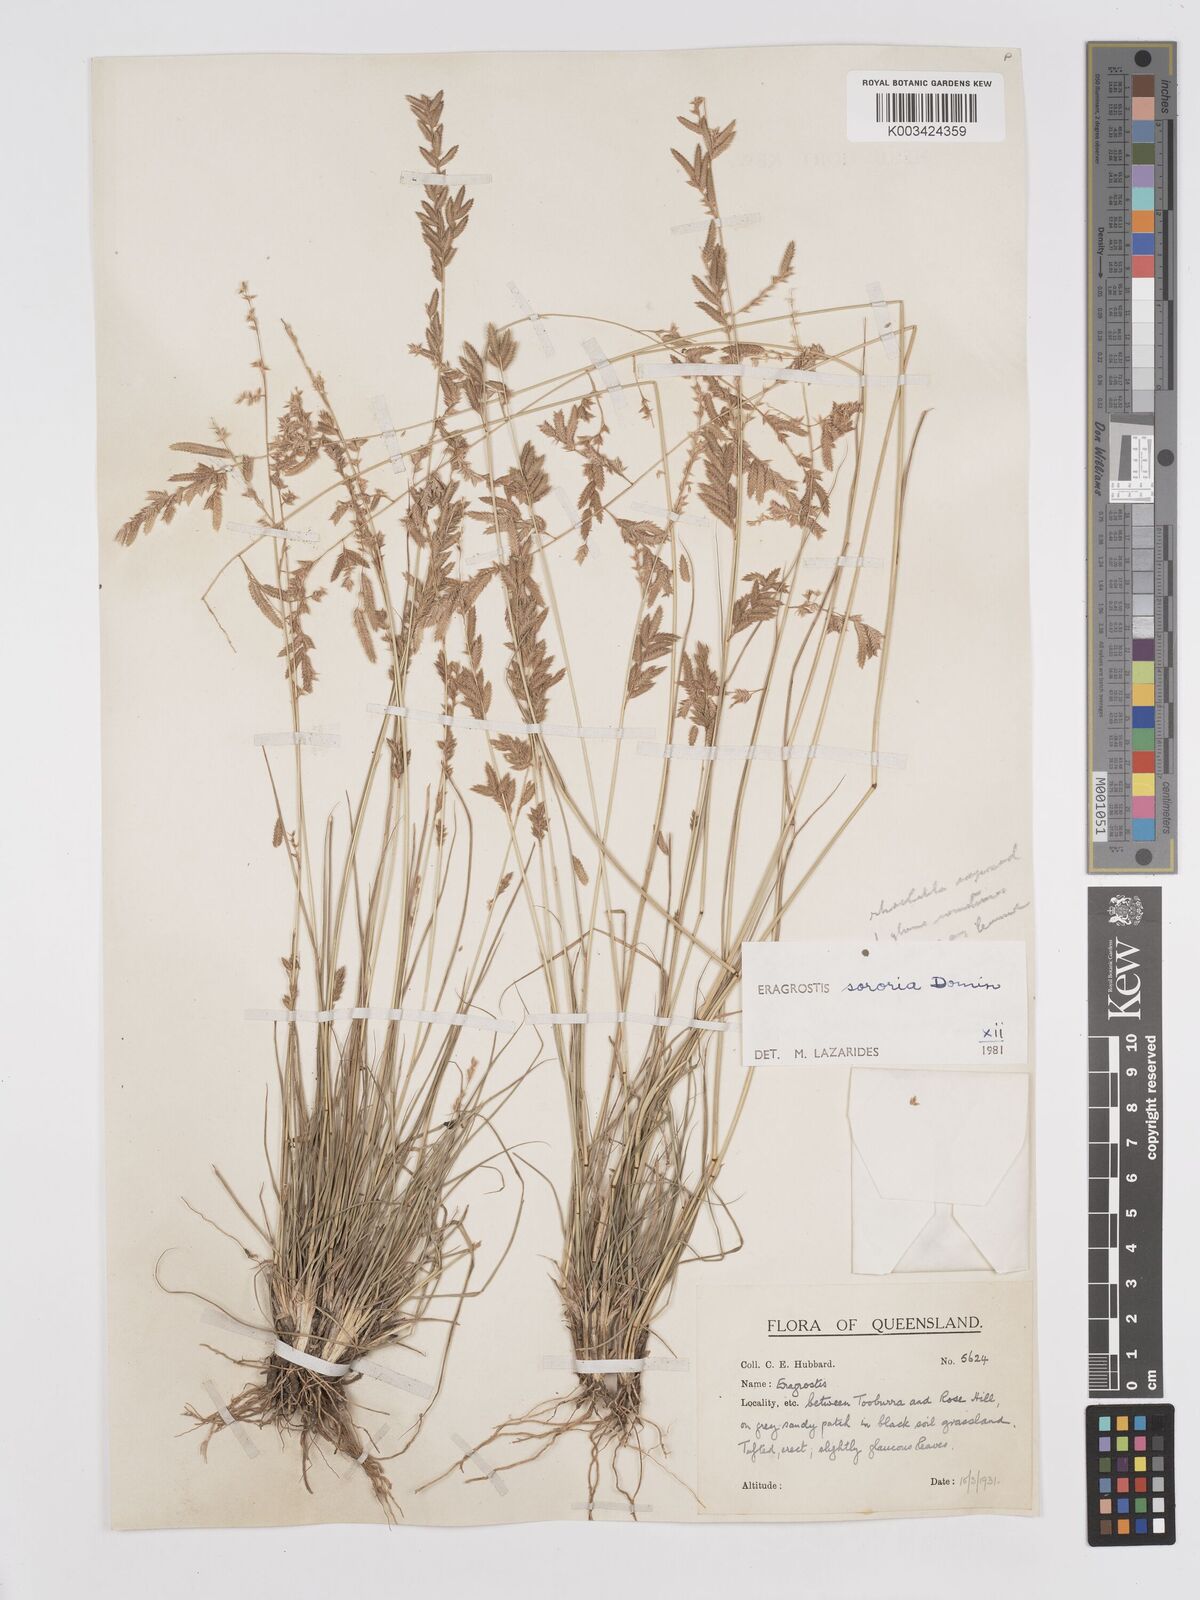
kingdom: Plantae
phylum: Tracheophyta
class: Liliopsida
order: Poales
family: Poaceae
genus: Eragrostis
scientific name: Eragrostis sororia
